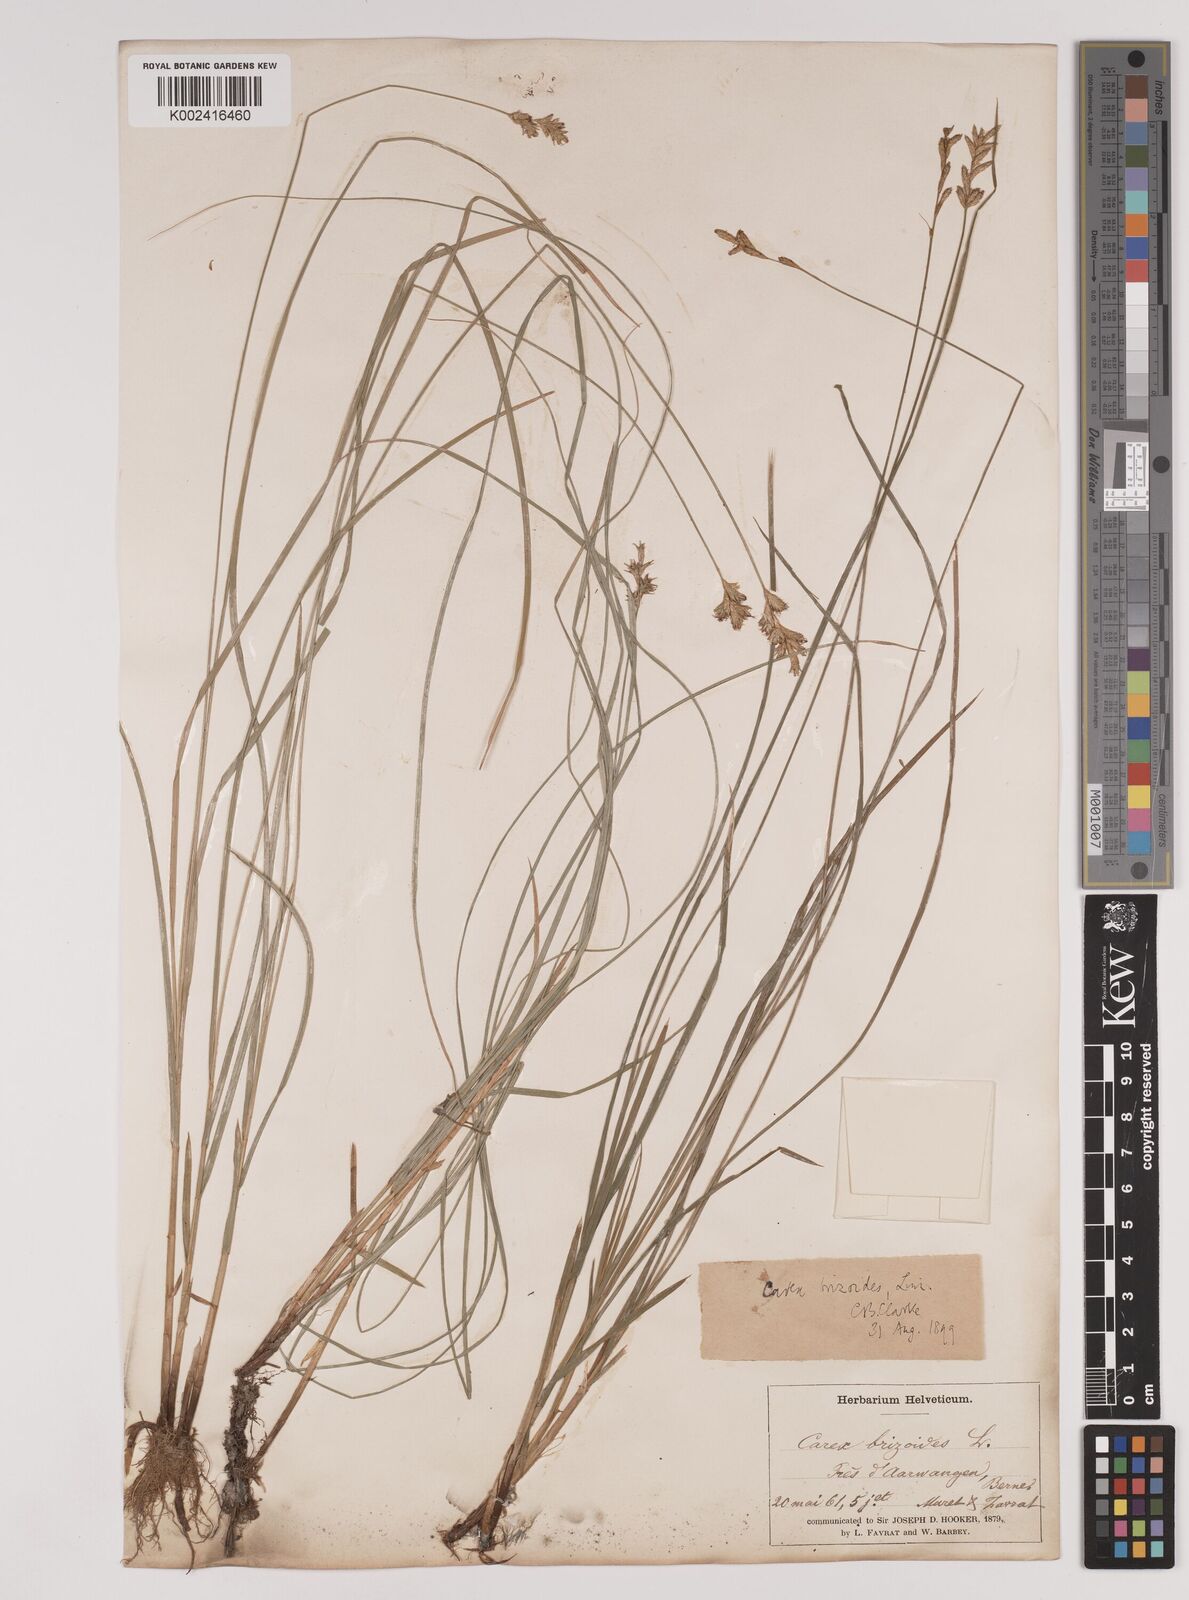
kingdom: Plantae
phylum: Tracheophyta
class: Liliopsida
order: Poales
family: Cyperaceae
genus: Carex
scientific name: Carex brizoides
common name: Quaking-grass sedge
